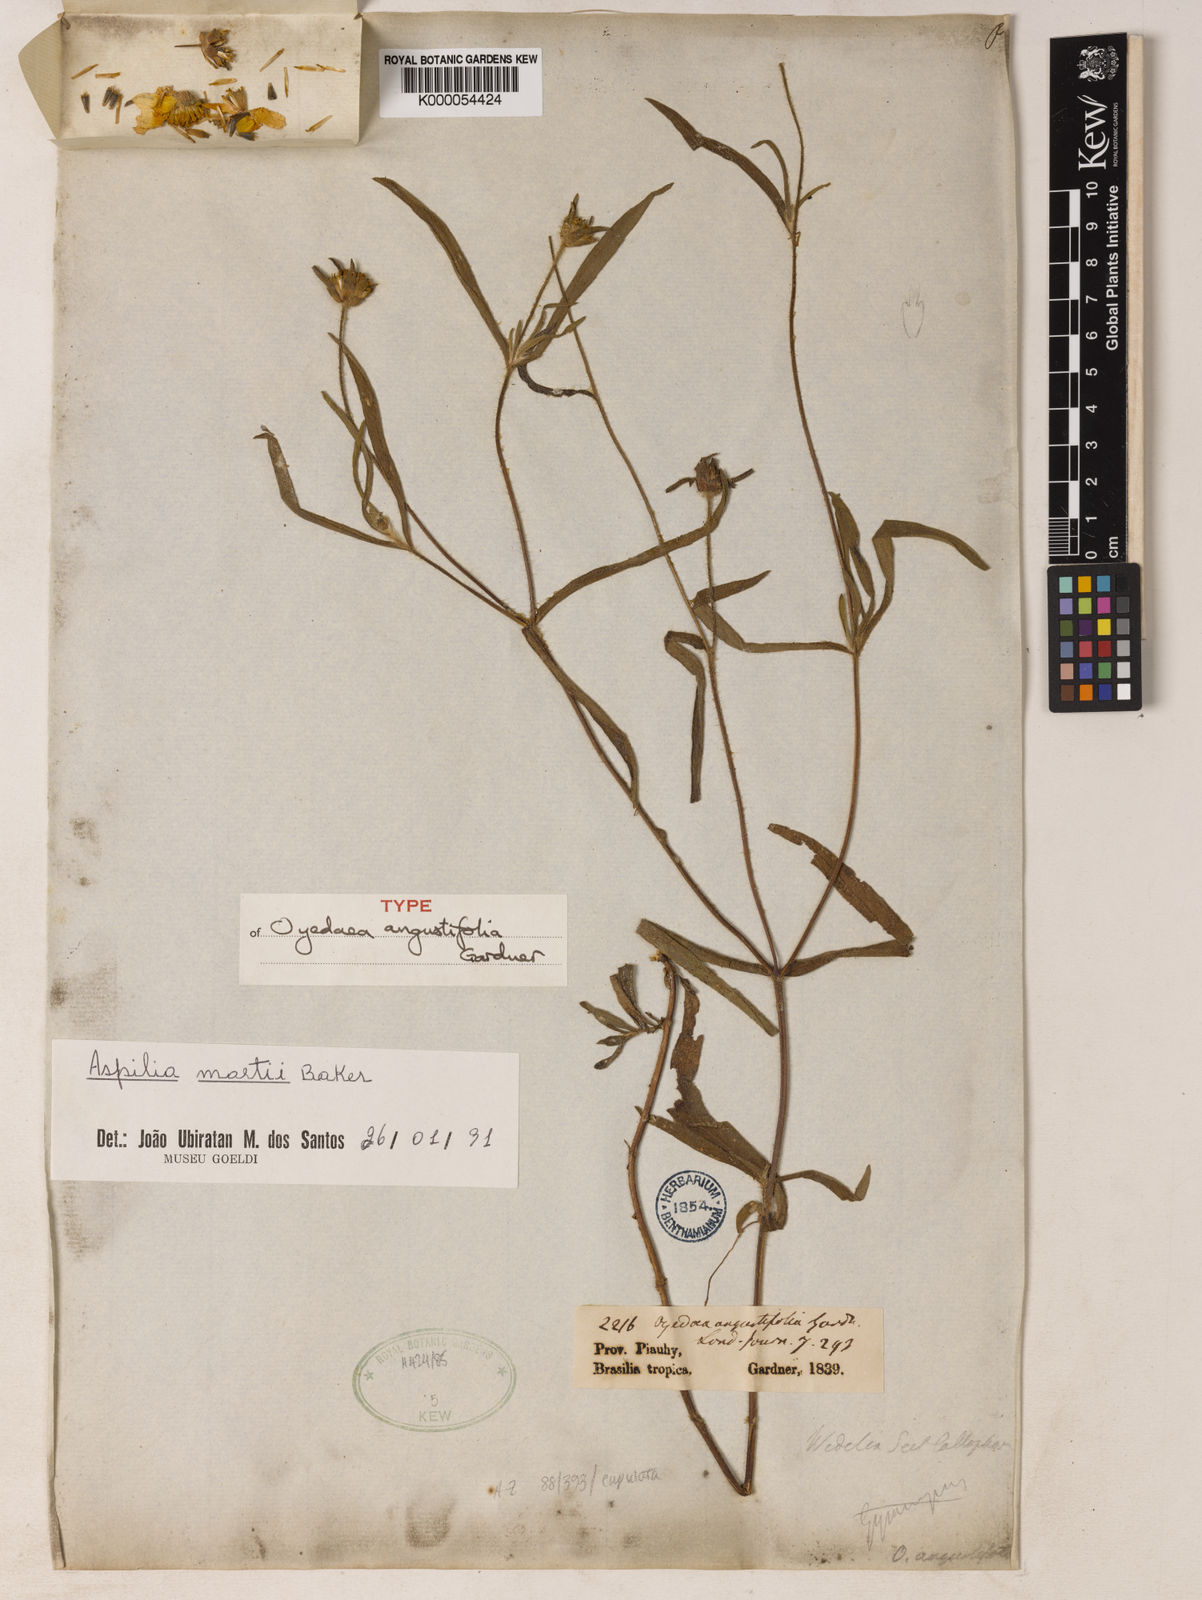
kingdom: Plantae
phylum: Tracheophyta
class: Magnoliopsida
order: Asterales
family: Asteraceae
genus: Wedelia
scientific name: Wedelia martii
